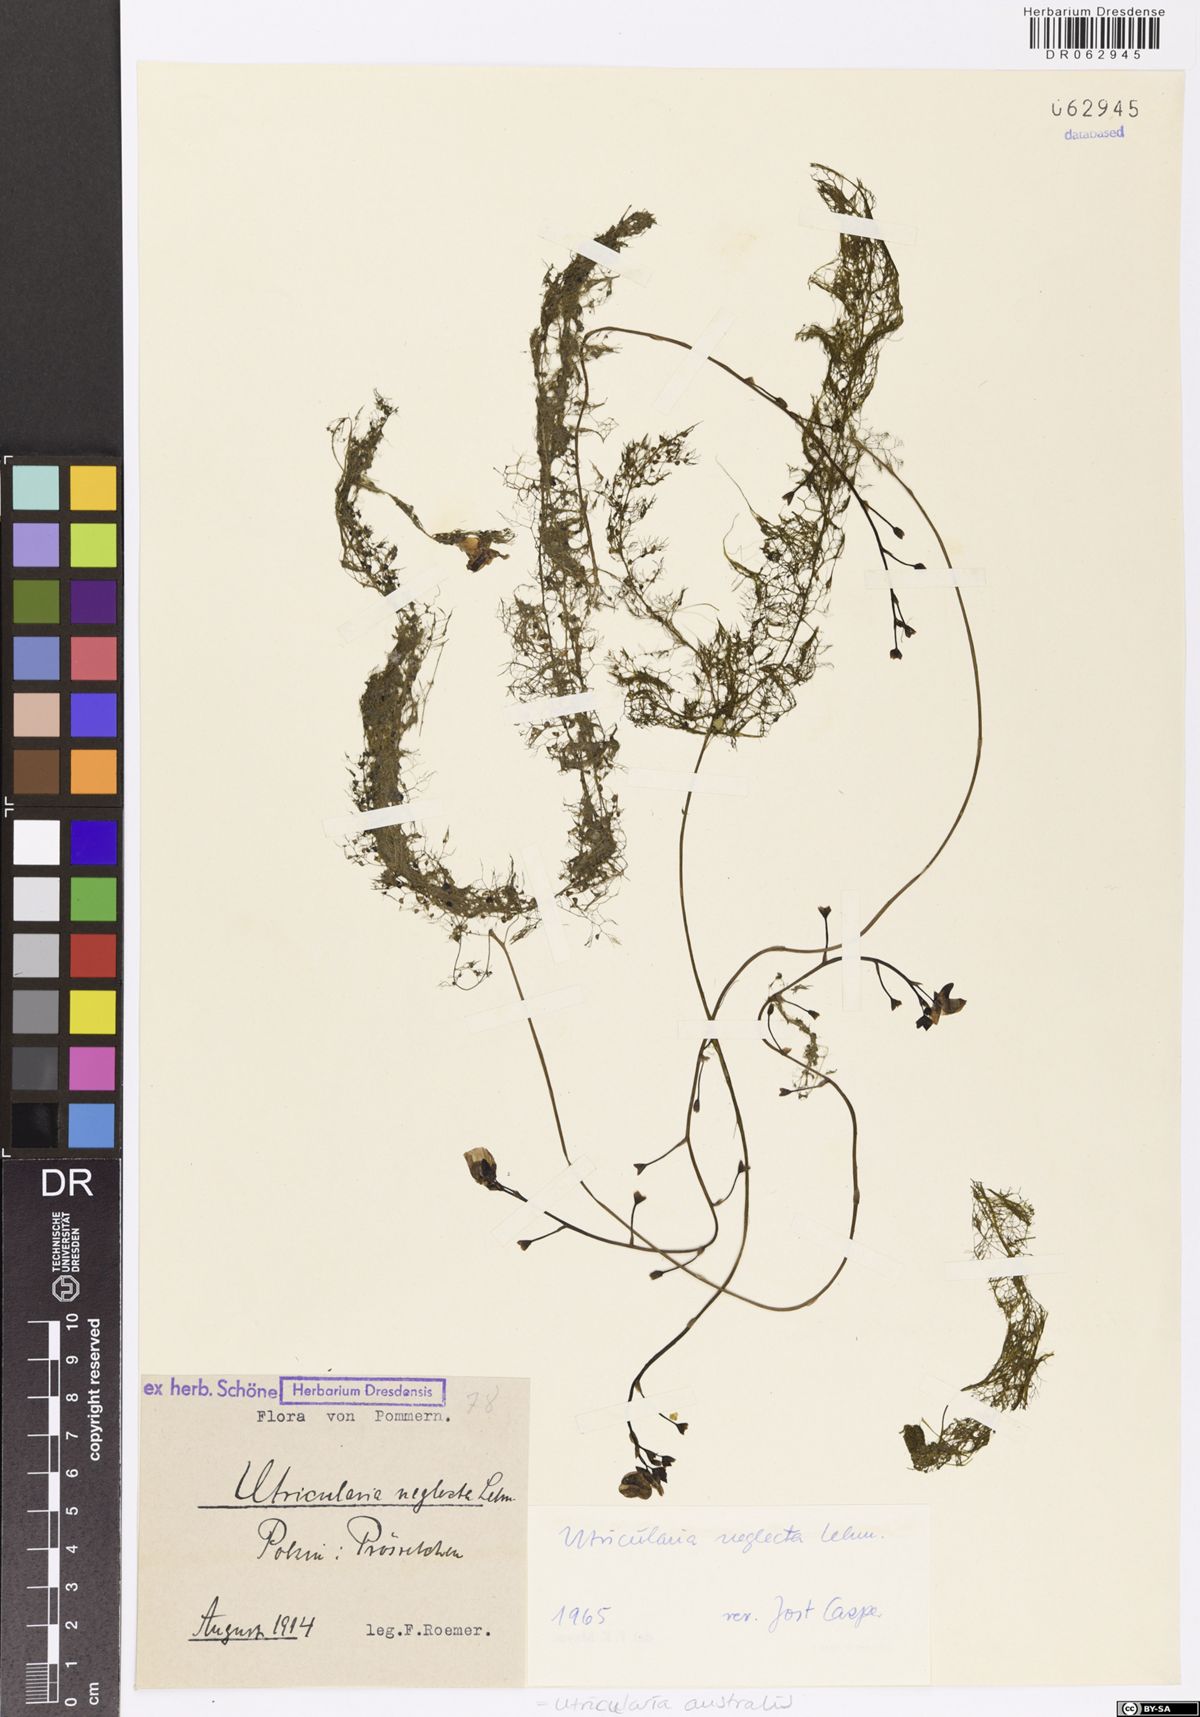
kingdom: Plantae
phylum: Tracheophyta
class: Magnoliopsida
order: Lamiales
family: Lentibulariaceae
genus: Utricularia
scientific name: Utricularia australis
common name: Bladderwort
